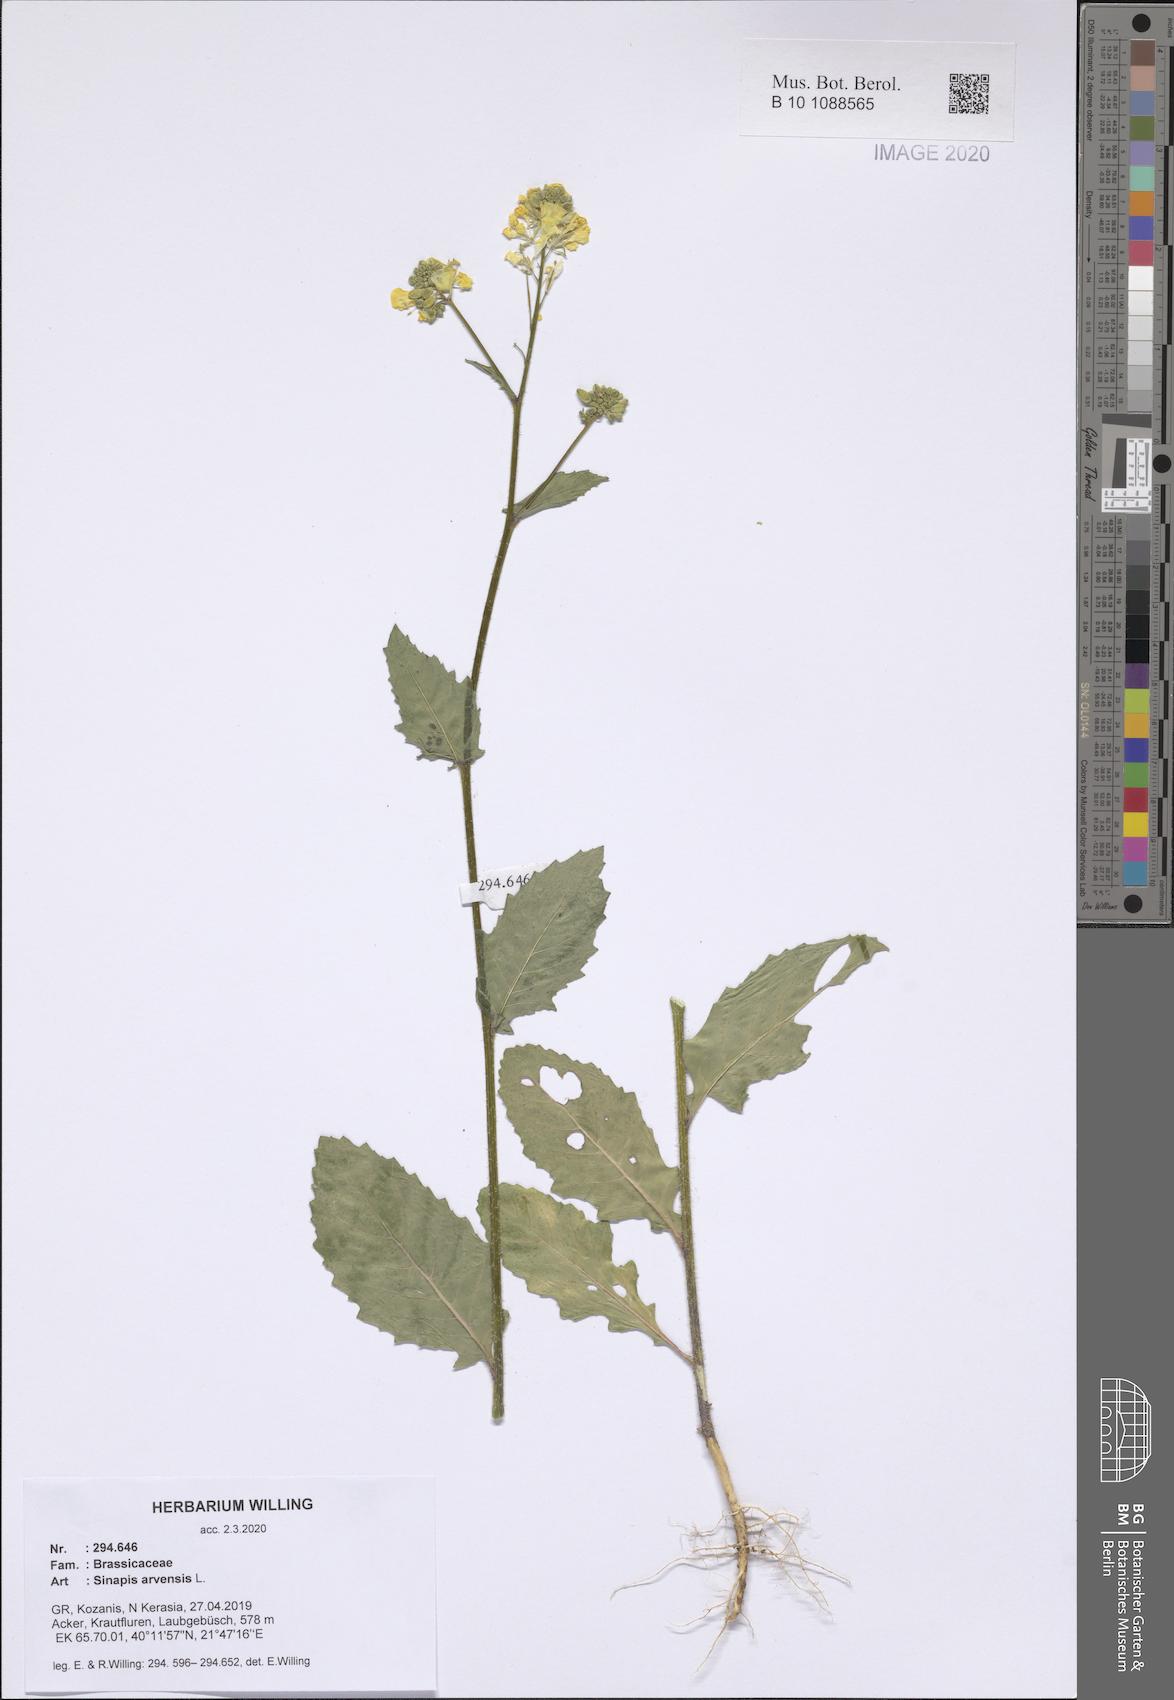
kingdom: Plantae
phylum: Tracheophyta
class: Magnoliopsida
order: Brassicales
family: Brassicaceae
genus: Sinapis
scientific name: Sinapis arvensis
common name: Charlock
